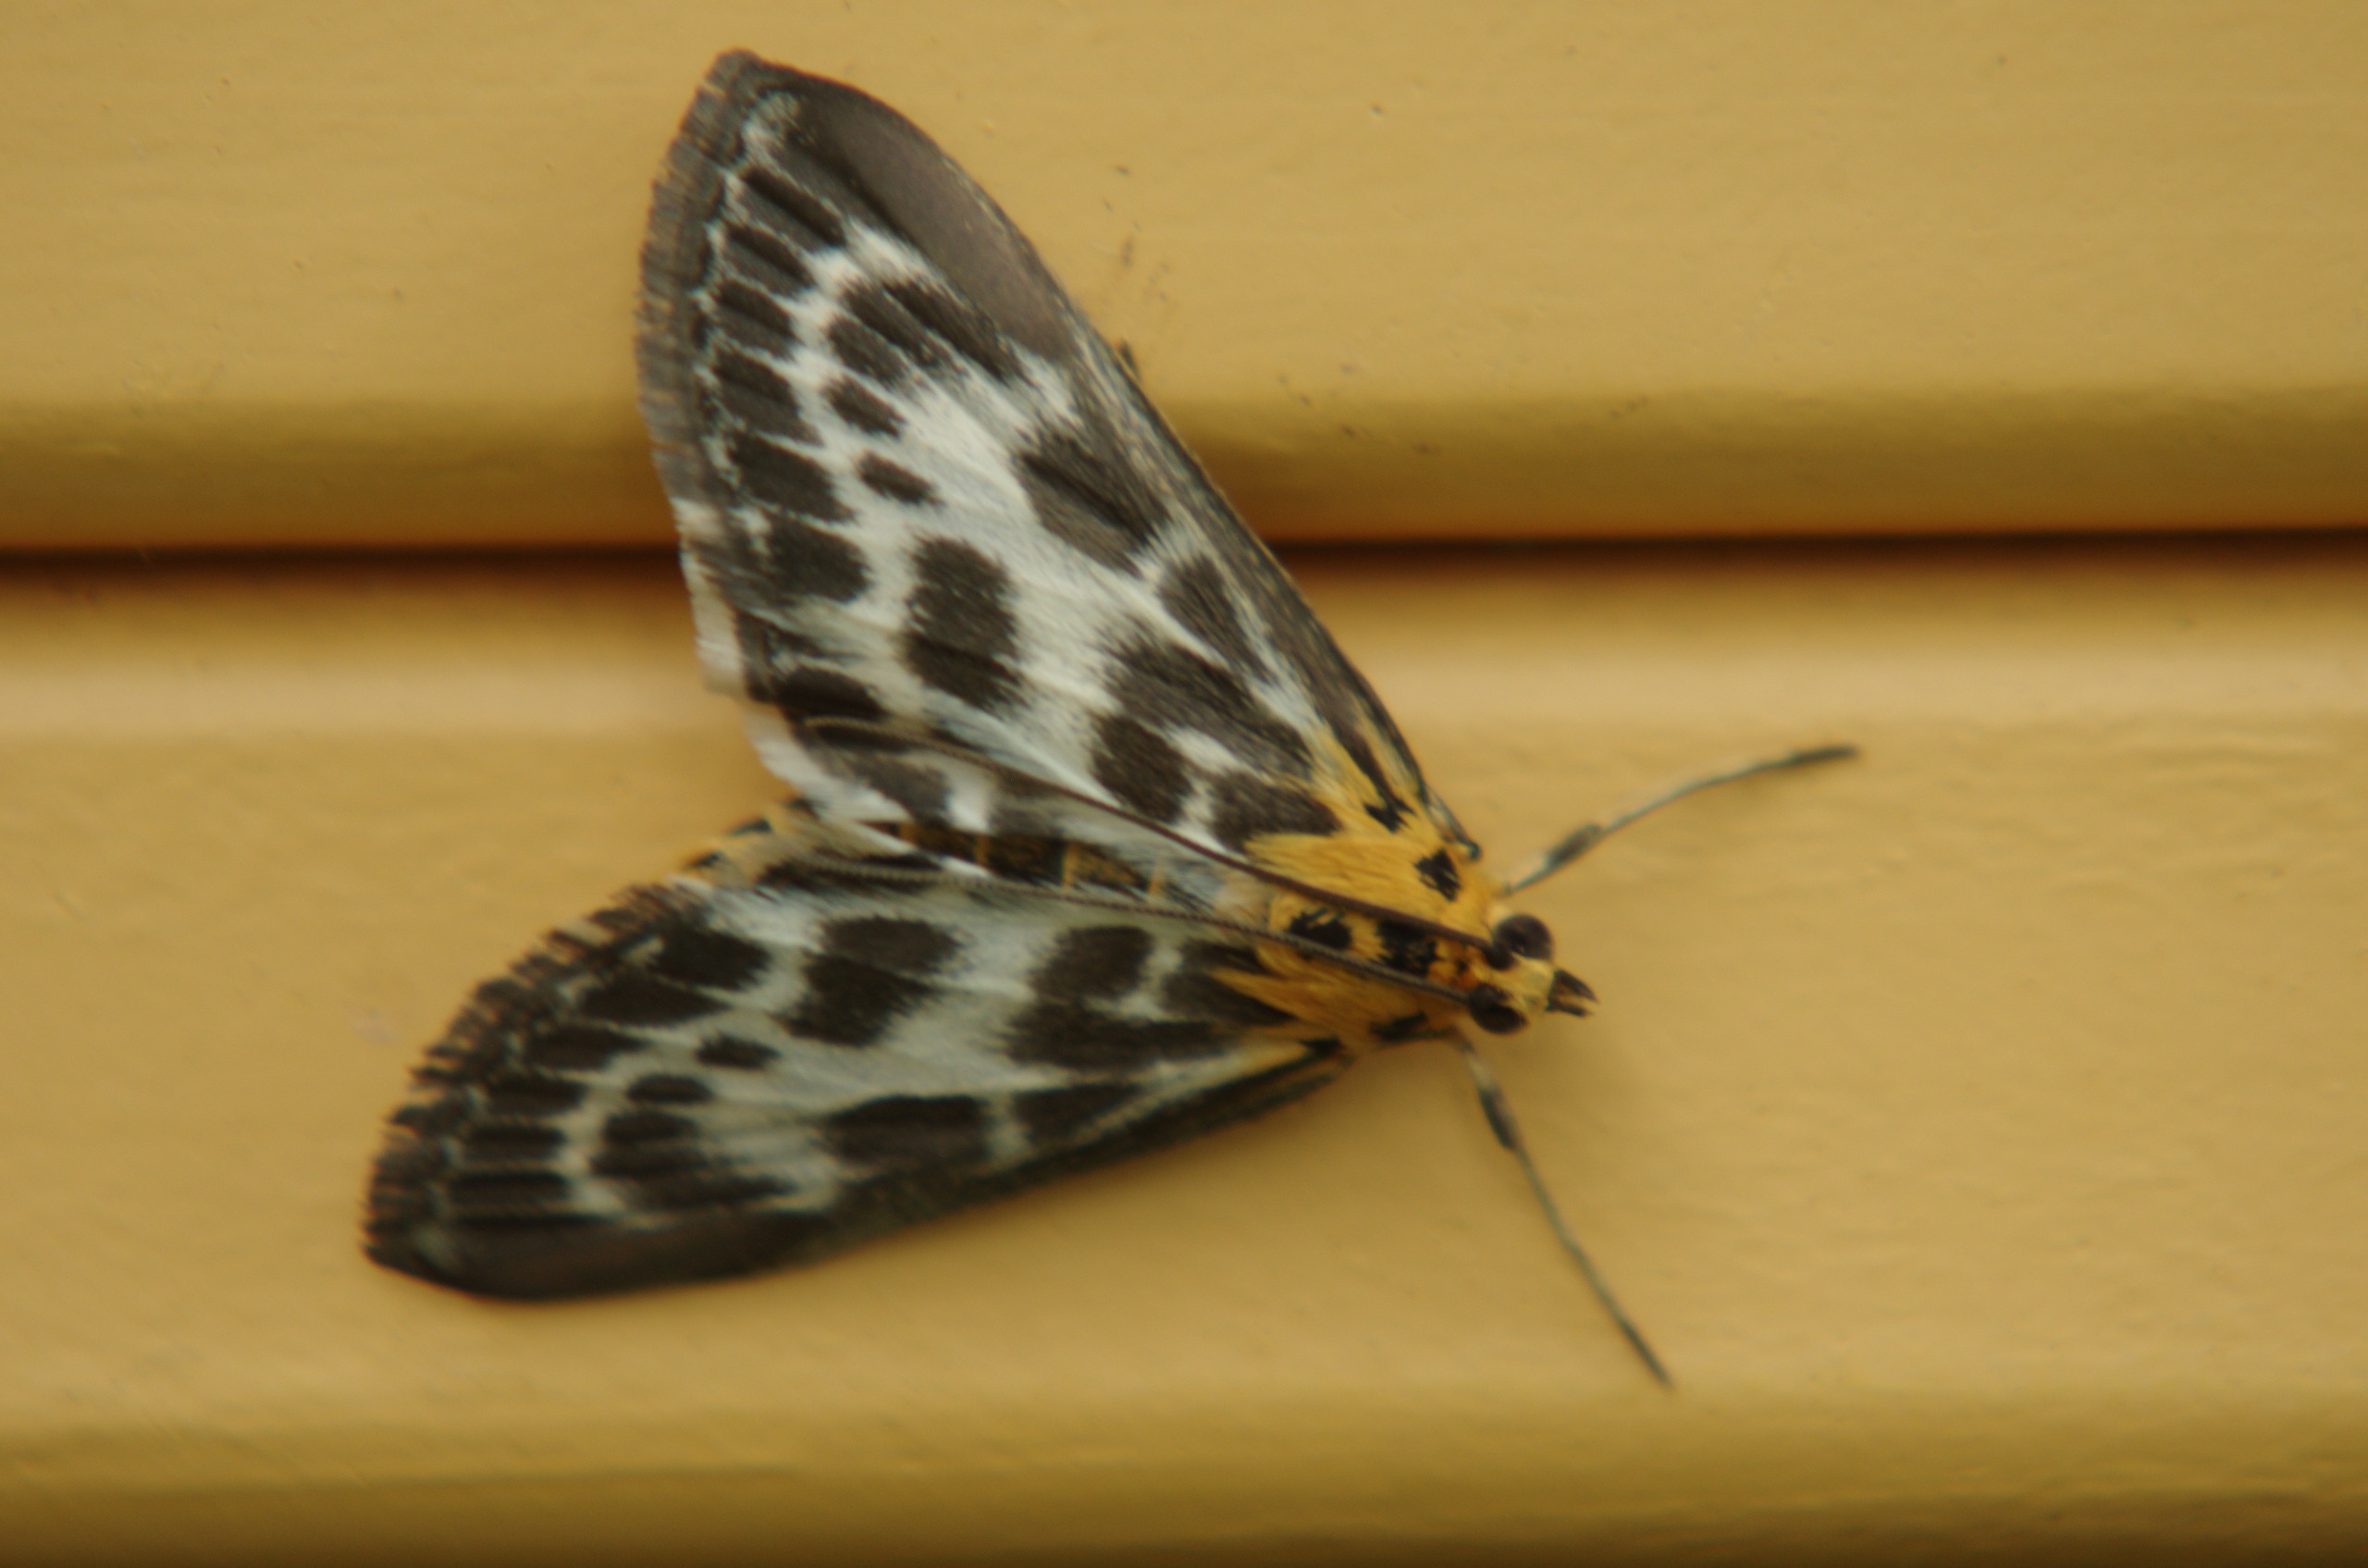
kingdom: Animalia
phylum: Arthropoda
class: Insecta
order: Lepidoptera
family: Crambidae
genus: Anania
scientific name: Anania hortulata
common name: Nældehalvmøl
